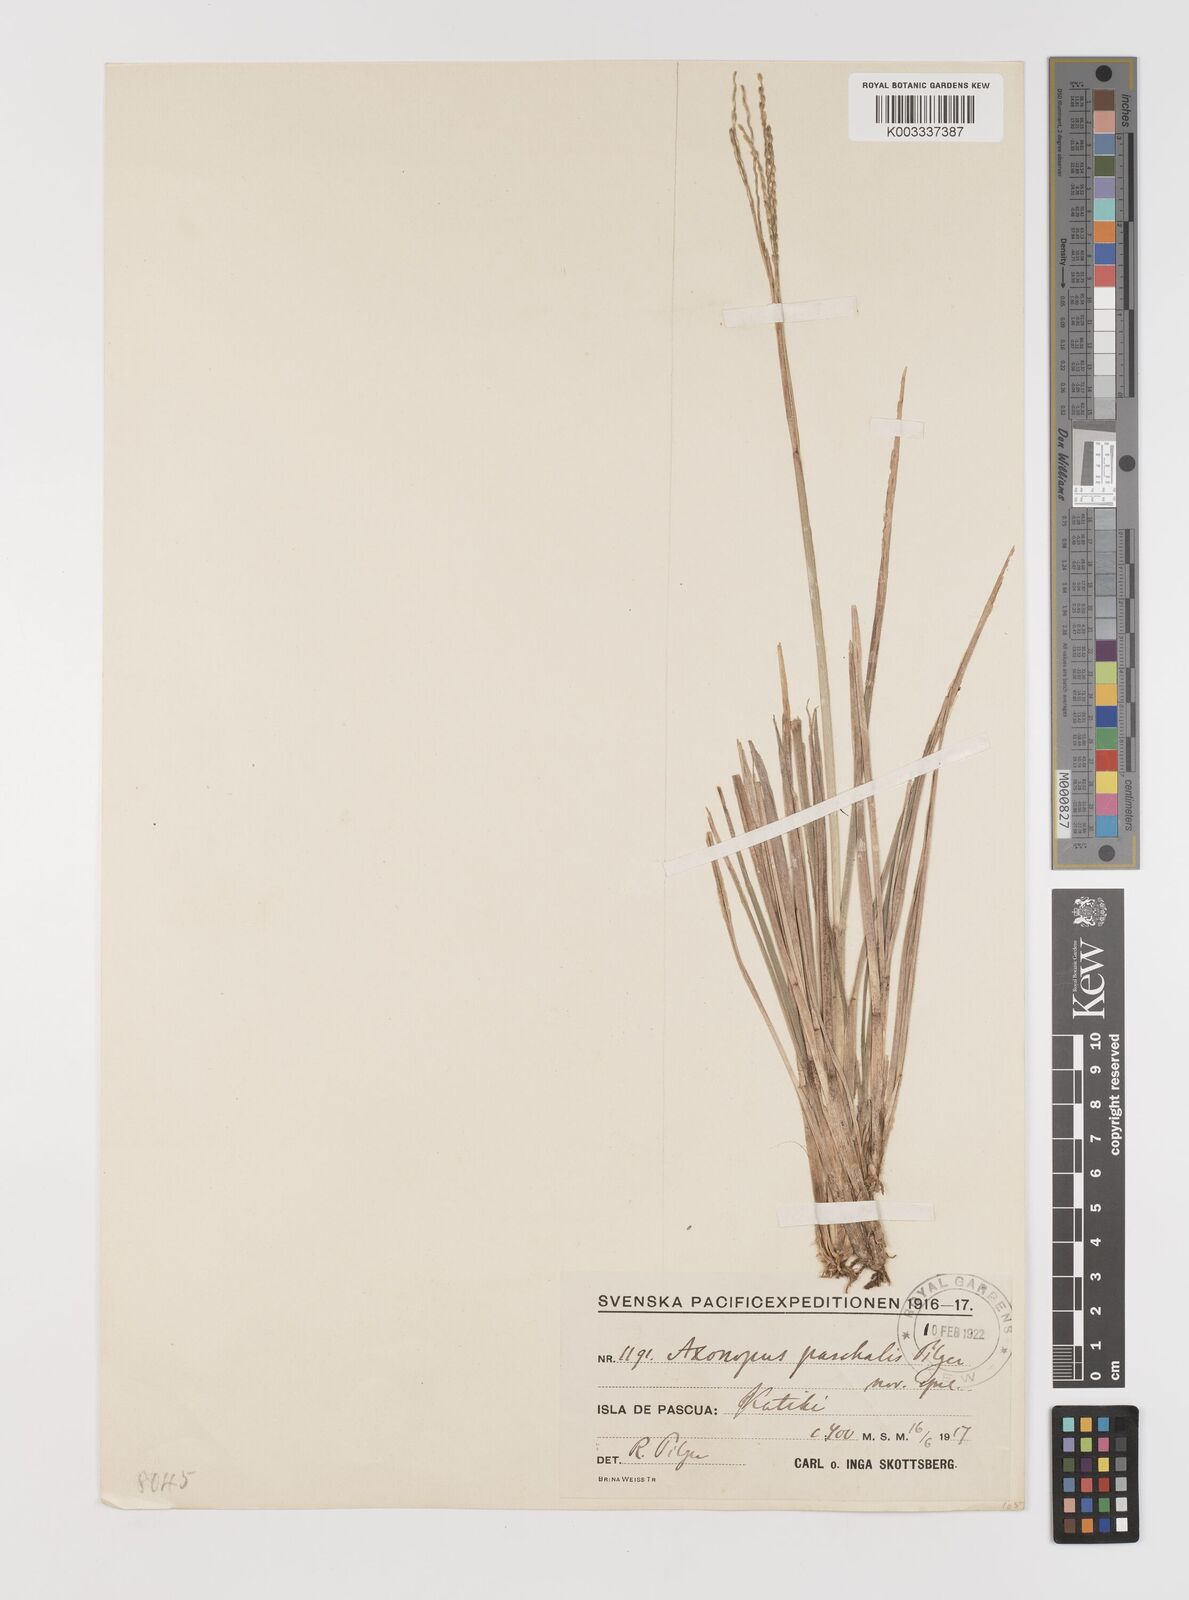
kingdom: Plantae
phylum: Tracheophyta
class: Liliopsida
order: Poales
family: Poaceae
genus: Axonopus
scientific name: Axonopus paschalis
